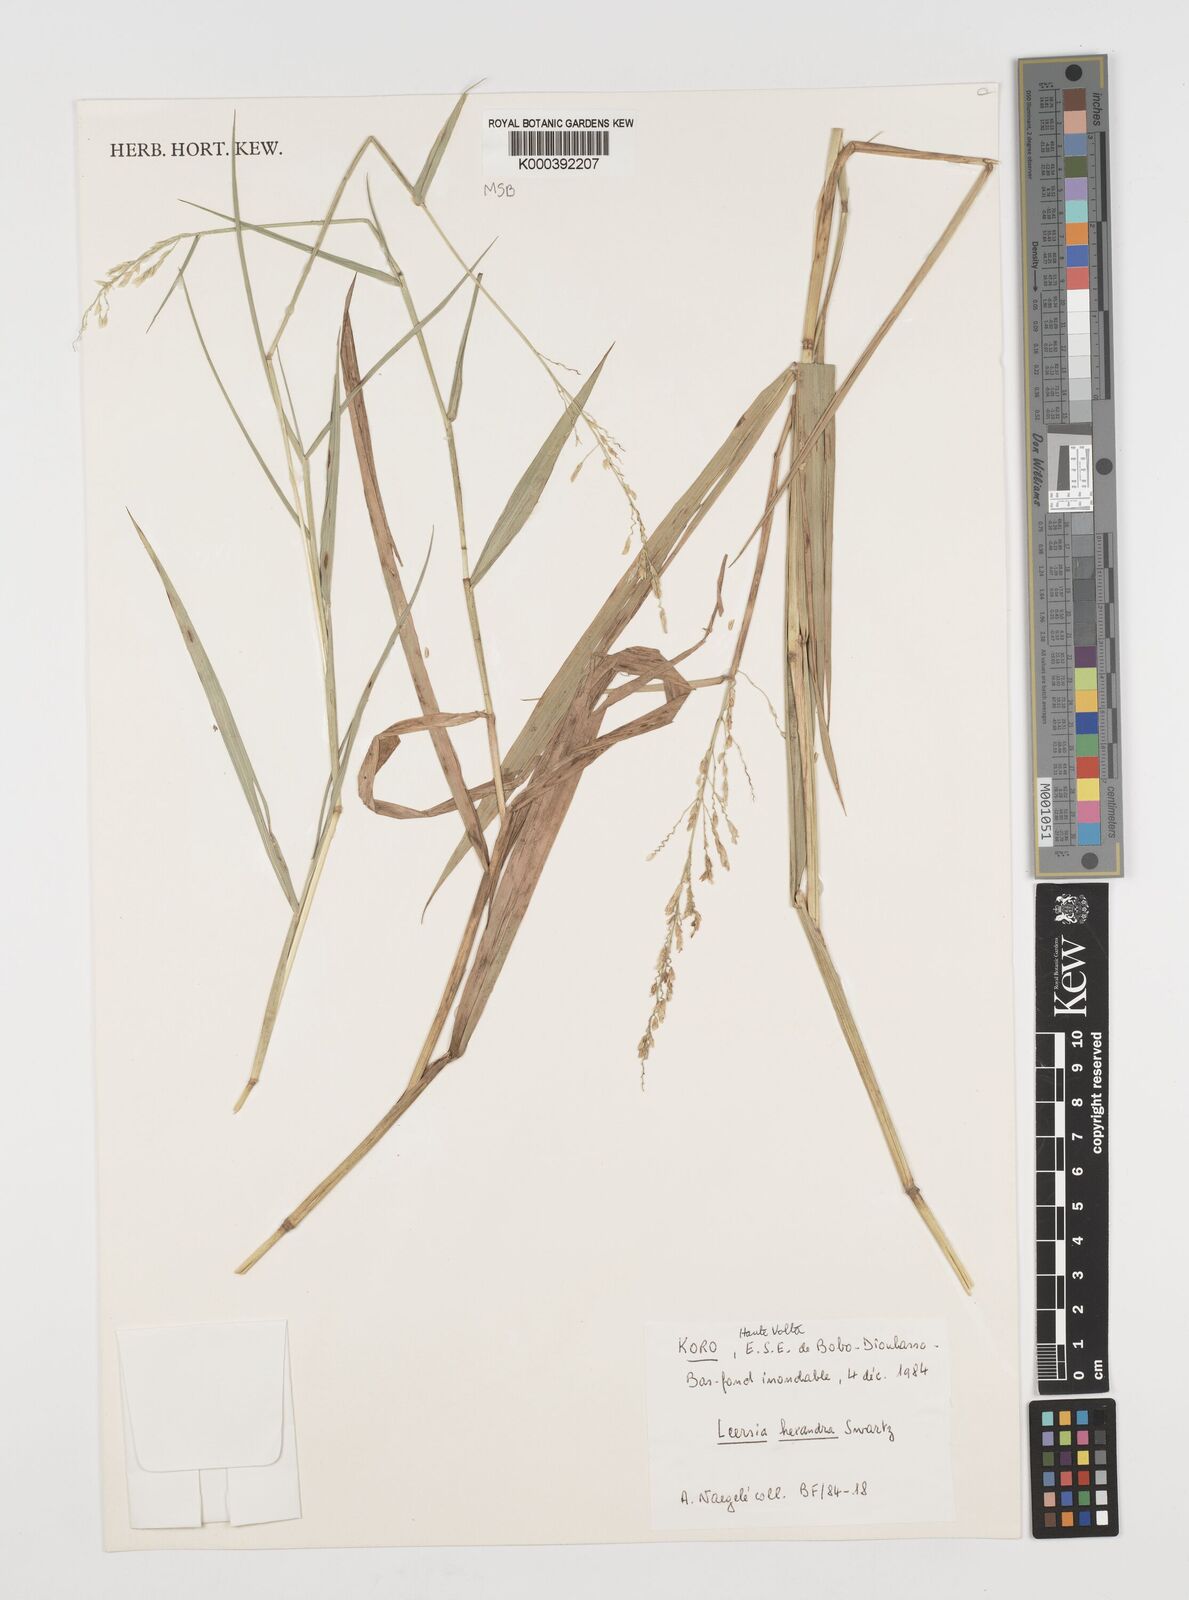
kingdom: Plantae
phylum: Tracheophyta
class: Liliopsida
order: Poales
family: Poaceae
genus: Leersia
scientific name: Leersia hexandra
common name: Southern cut grass
